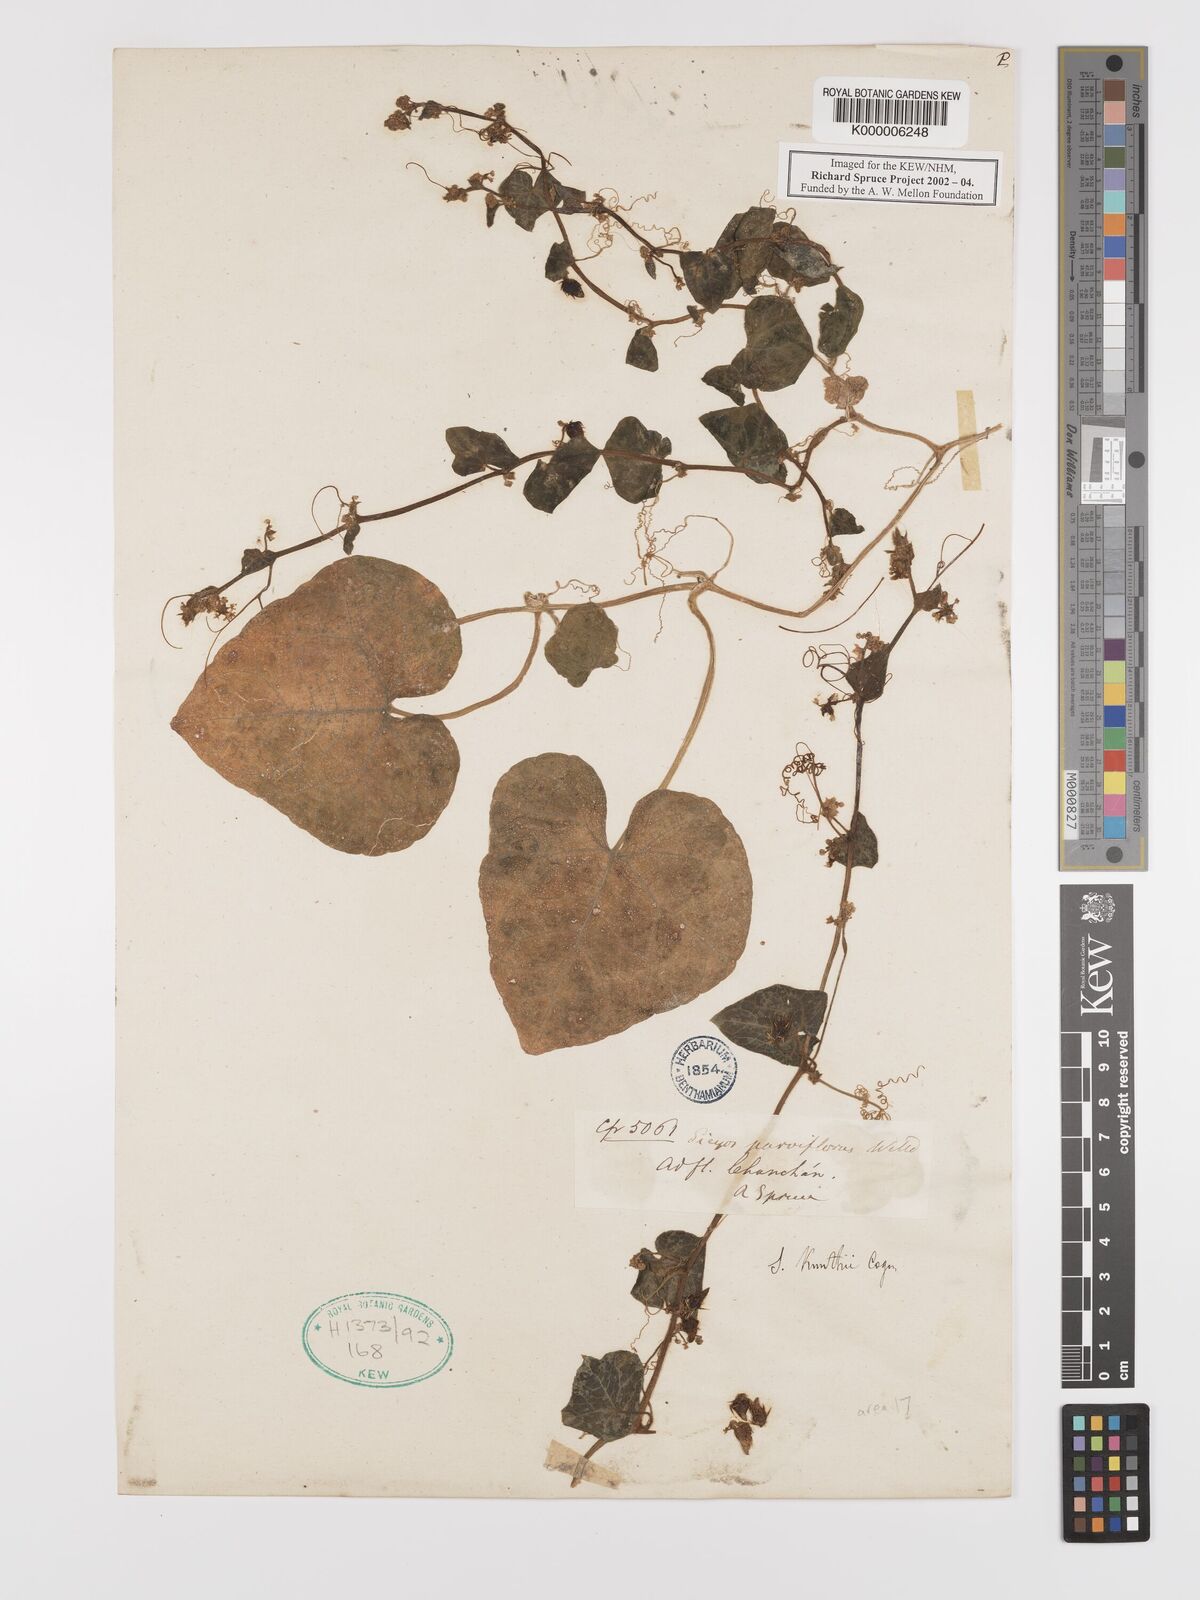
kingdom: Plantae
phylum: Tracheophyta
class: Magnoliopsida
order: Cucurbitales
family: Cucurbitaceae
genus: Sicyos
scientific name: Sicyos kunthii
